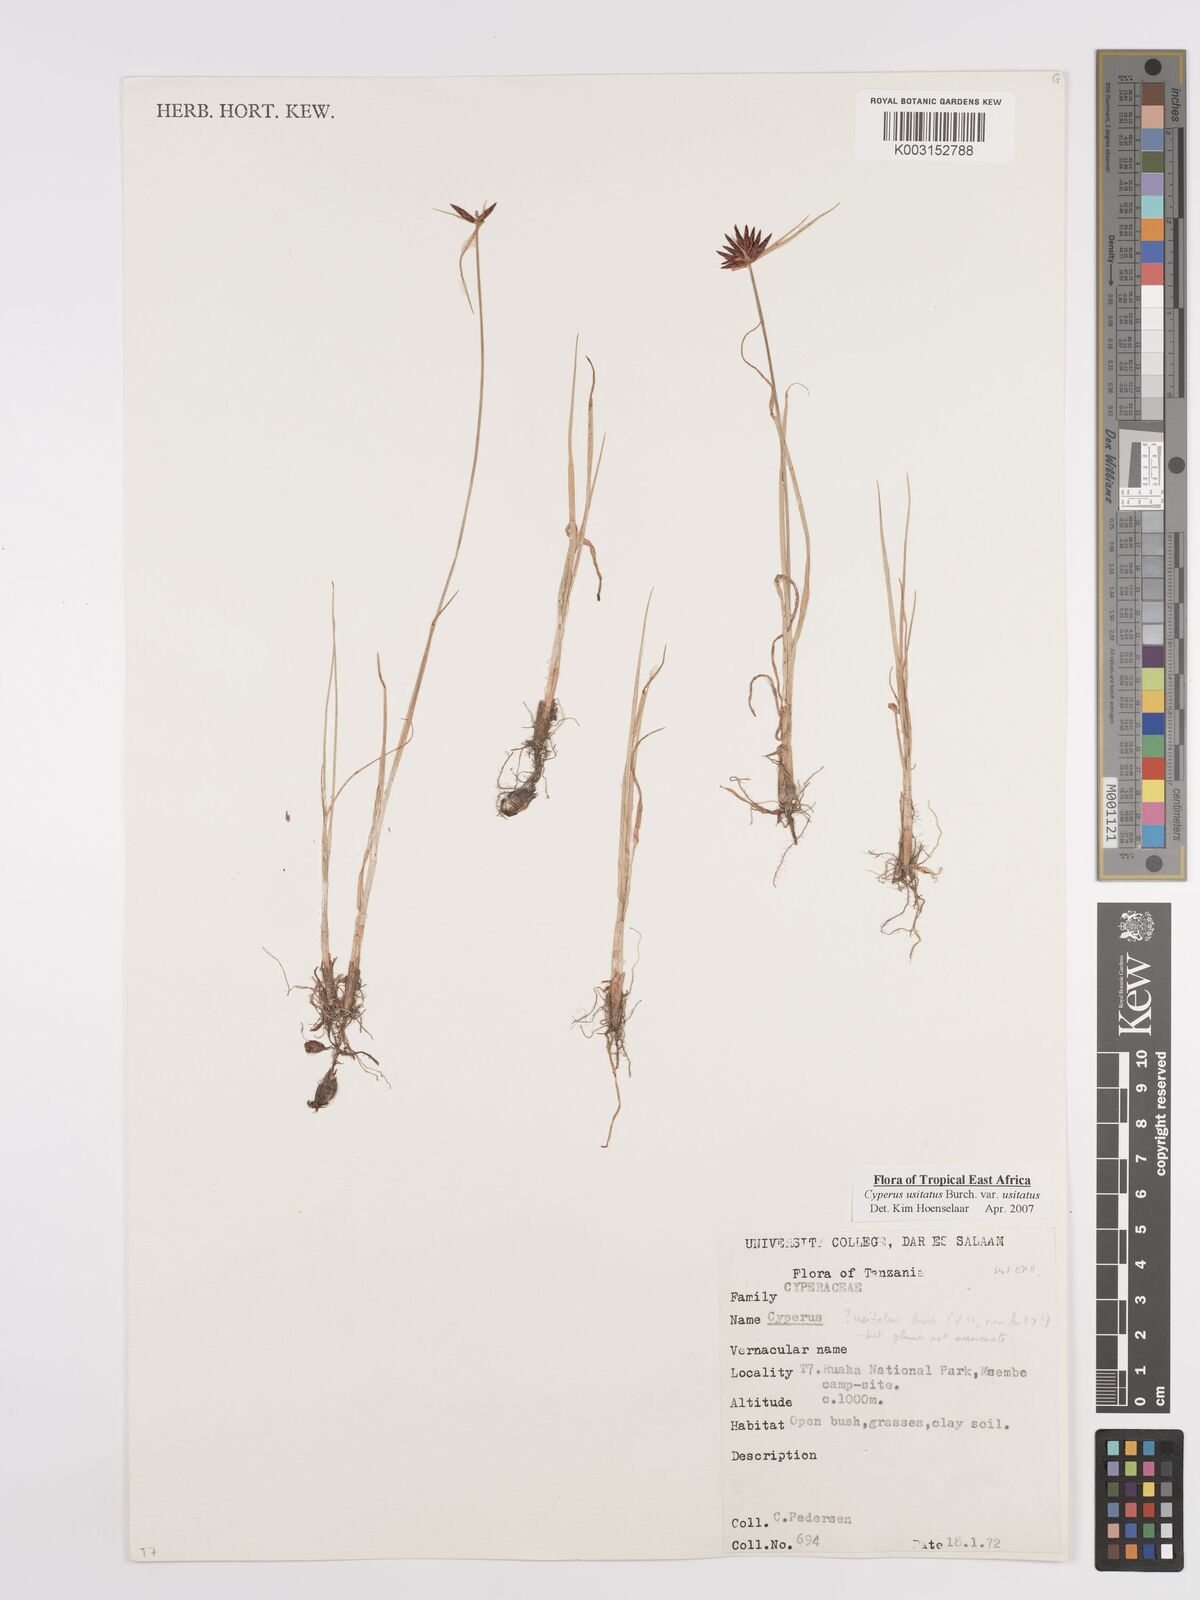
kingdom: Plantae
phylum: Tracheophyta
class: Liliopsida
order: Poales
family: Cyperaceae
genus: Cyperus
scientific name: Cyperus usitatus
